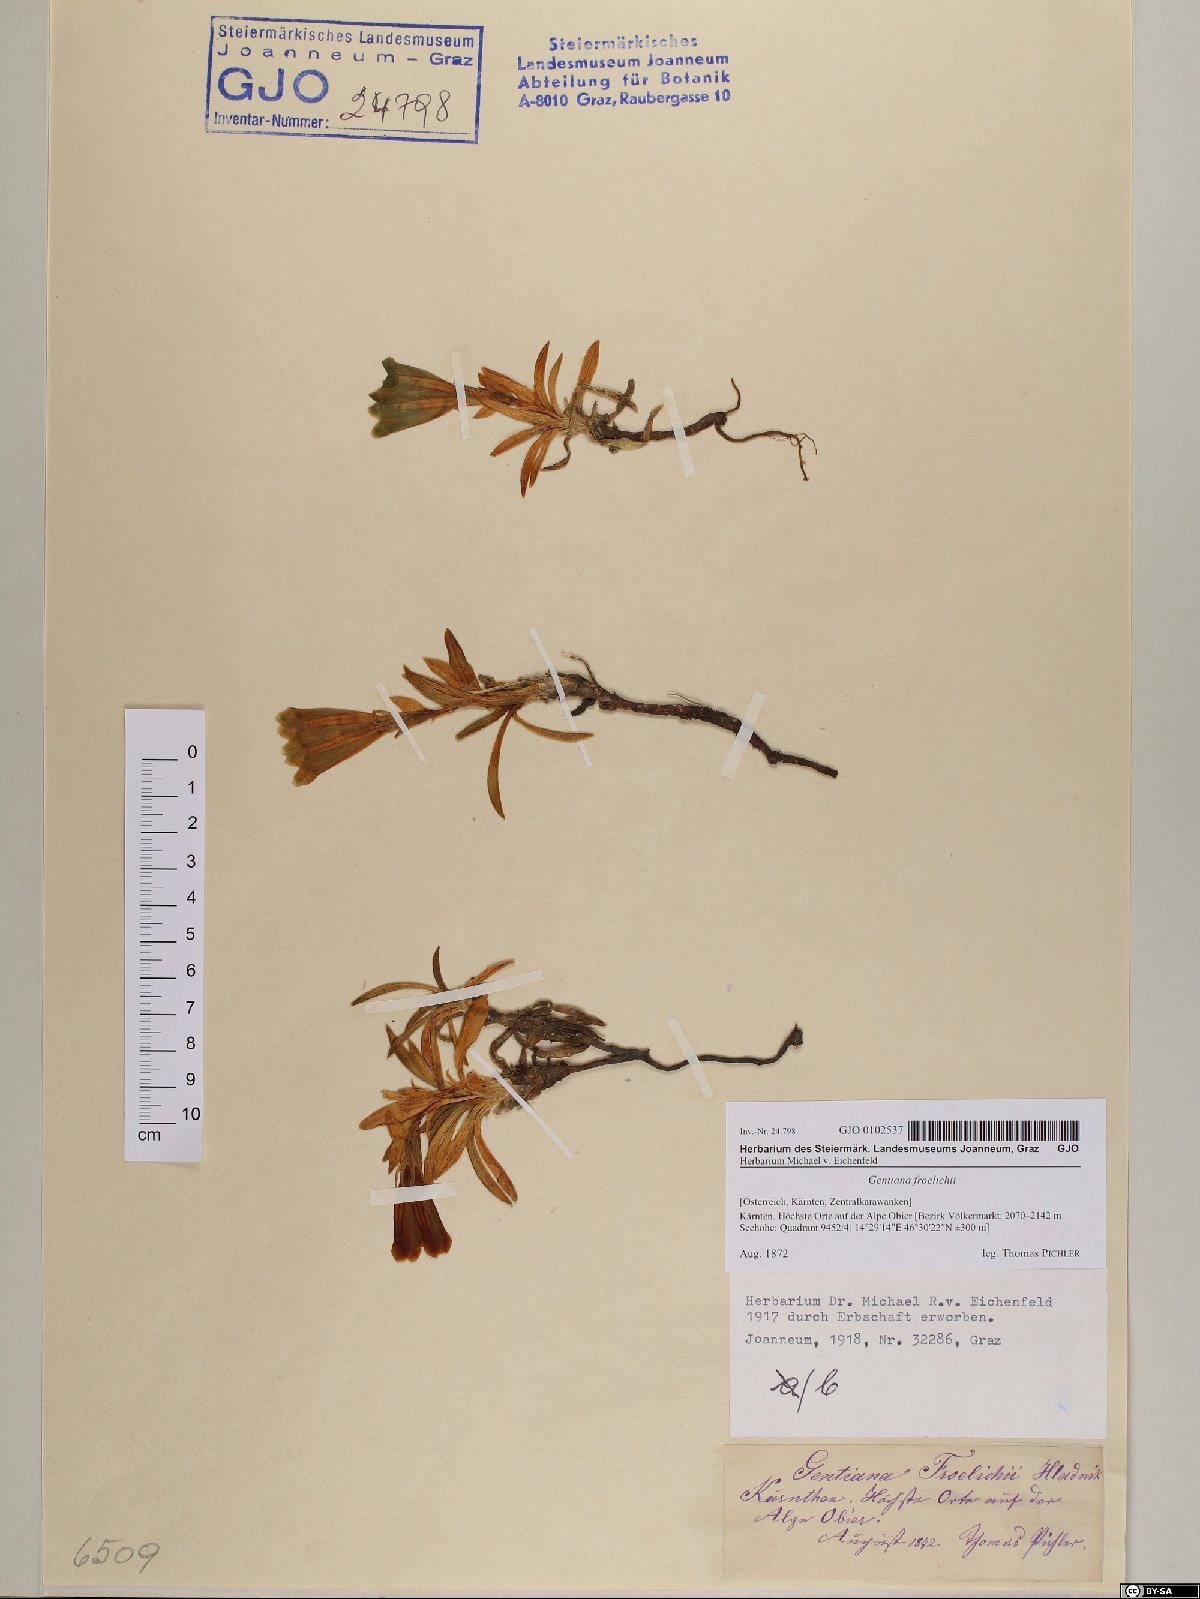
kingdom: Plantae
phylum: Tracheophyta
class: Magnoliopsida
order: Gentianales
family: Gentianaceae
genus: Gentiana
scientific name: Gentiana froelichii
